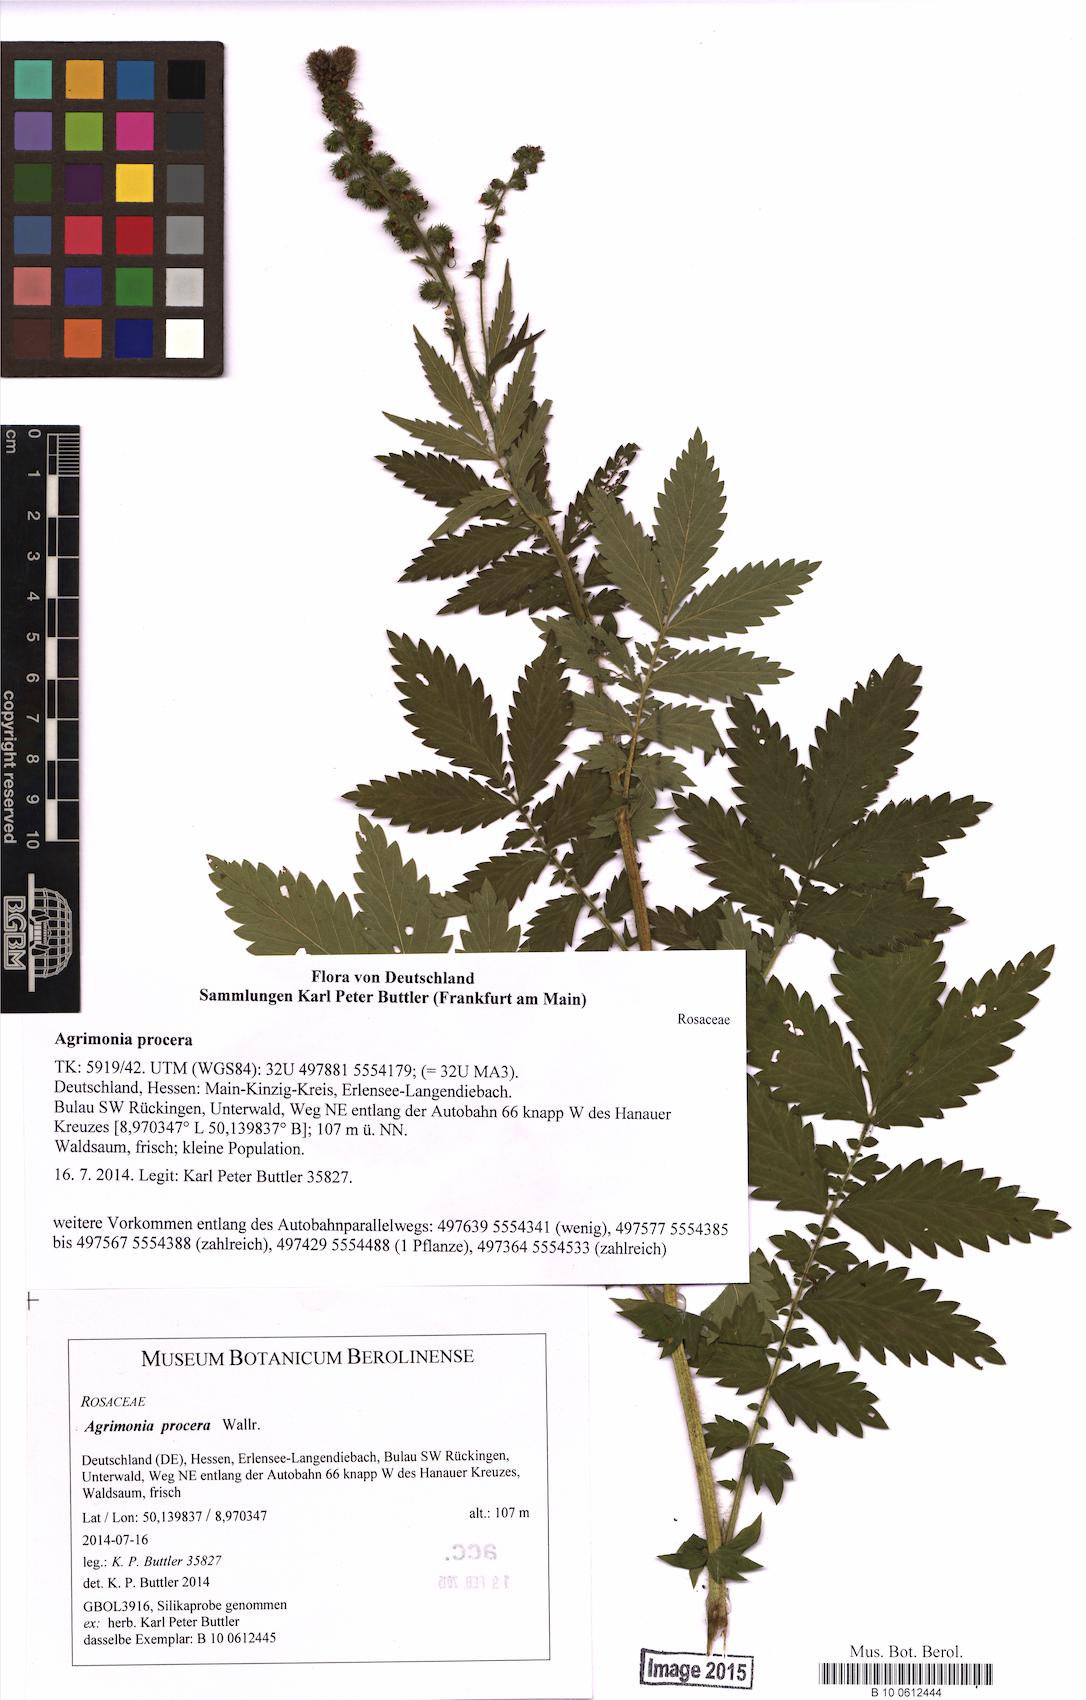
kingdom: Plantae
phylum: Tracheophyta
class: Magnoliopsida
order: Rosales
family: Rosaceae
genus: Agrimonia
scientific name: Agrimonia procera
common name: Fragrant agrimony
